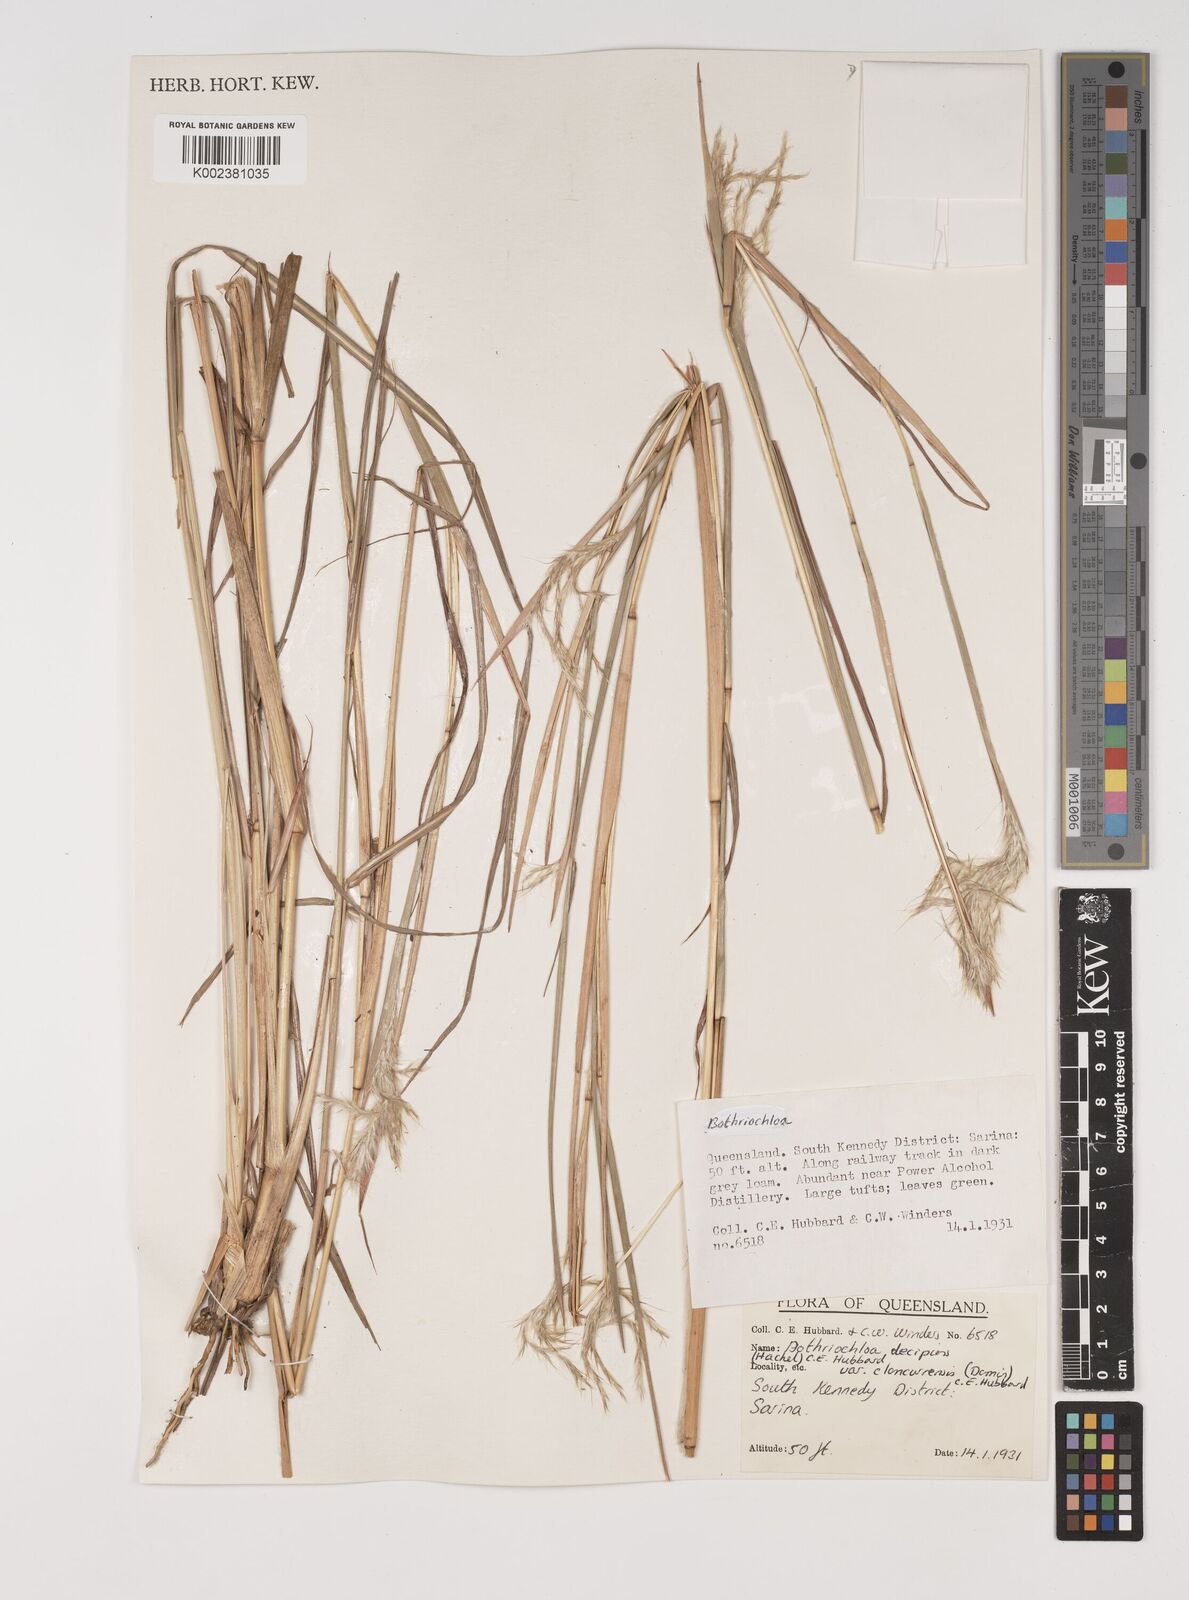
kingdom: Plantae
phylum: Tracheophyta
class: Liliopsida
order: Poales
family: Poaceae
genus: Bothriochloa
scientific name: Bothriochloa decipiens
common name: Pitted-bluegrass
